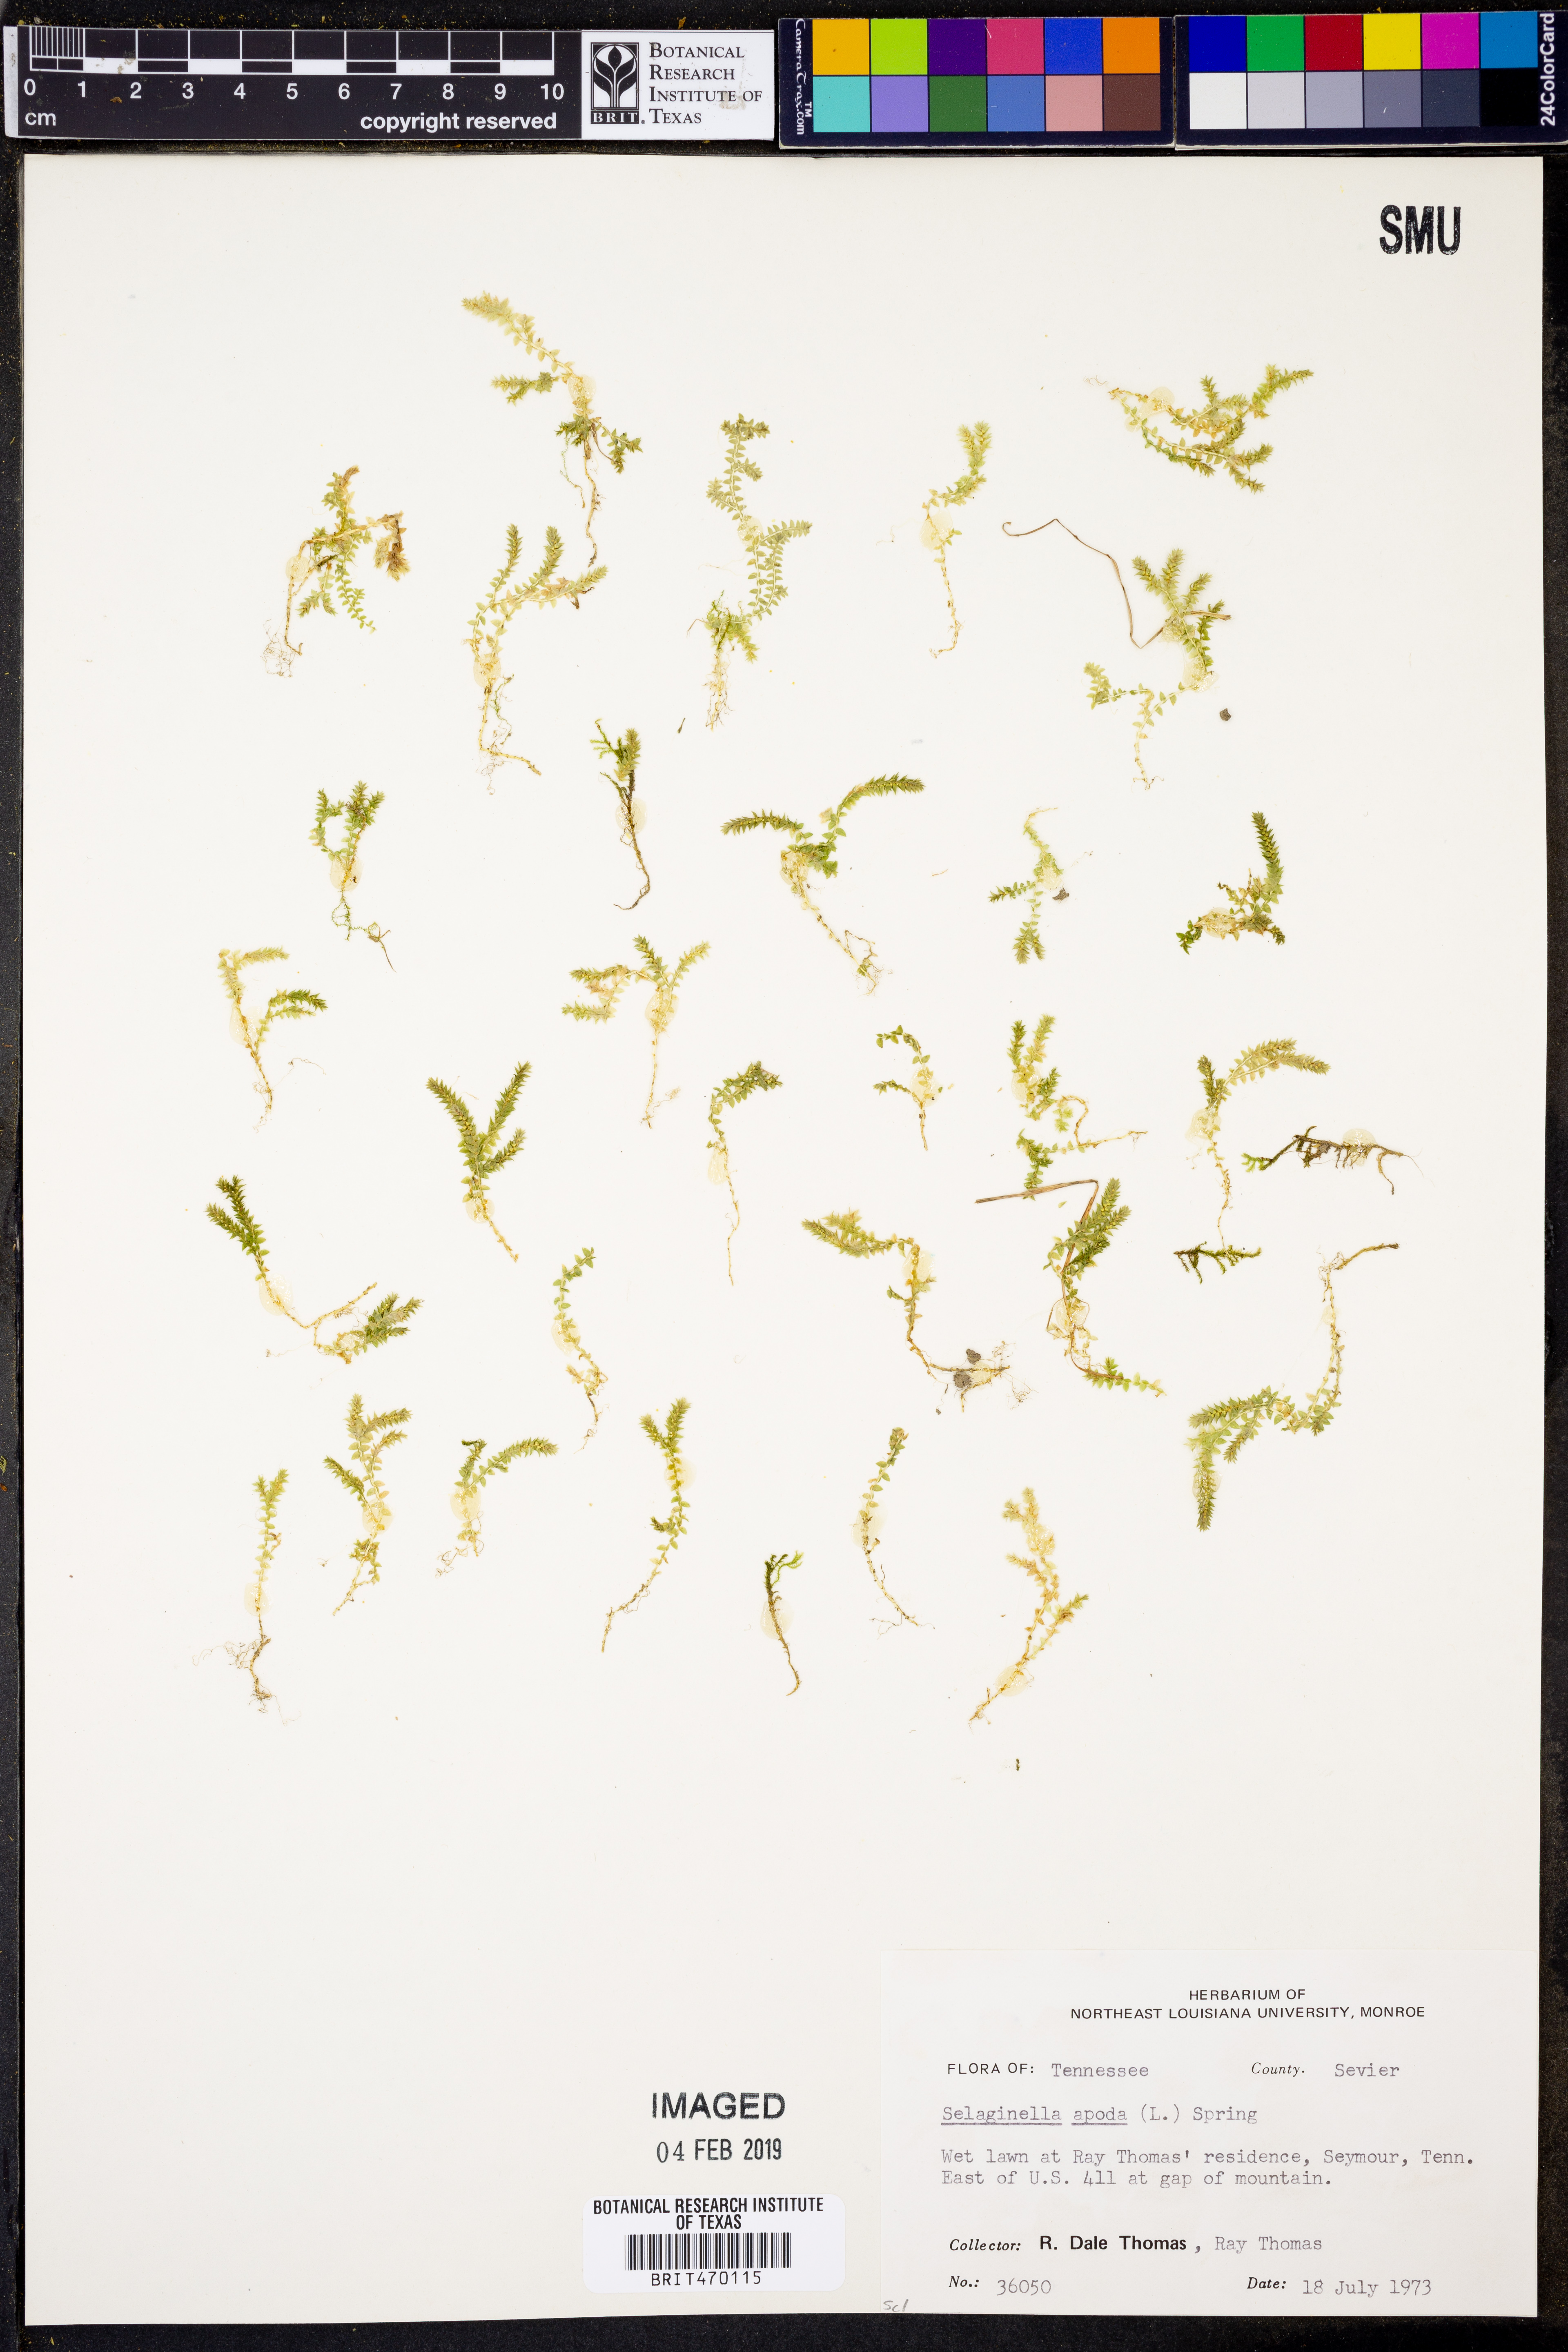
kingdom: Plantae
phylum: Tracheophyta
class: Lycopodiopsida
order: Selaginellales
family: Selaginellaceae
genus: Selaginella
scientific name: Selaginella apoda
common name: Creeping spikemoss
